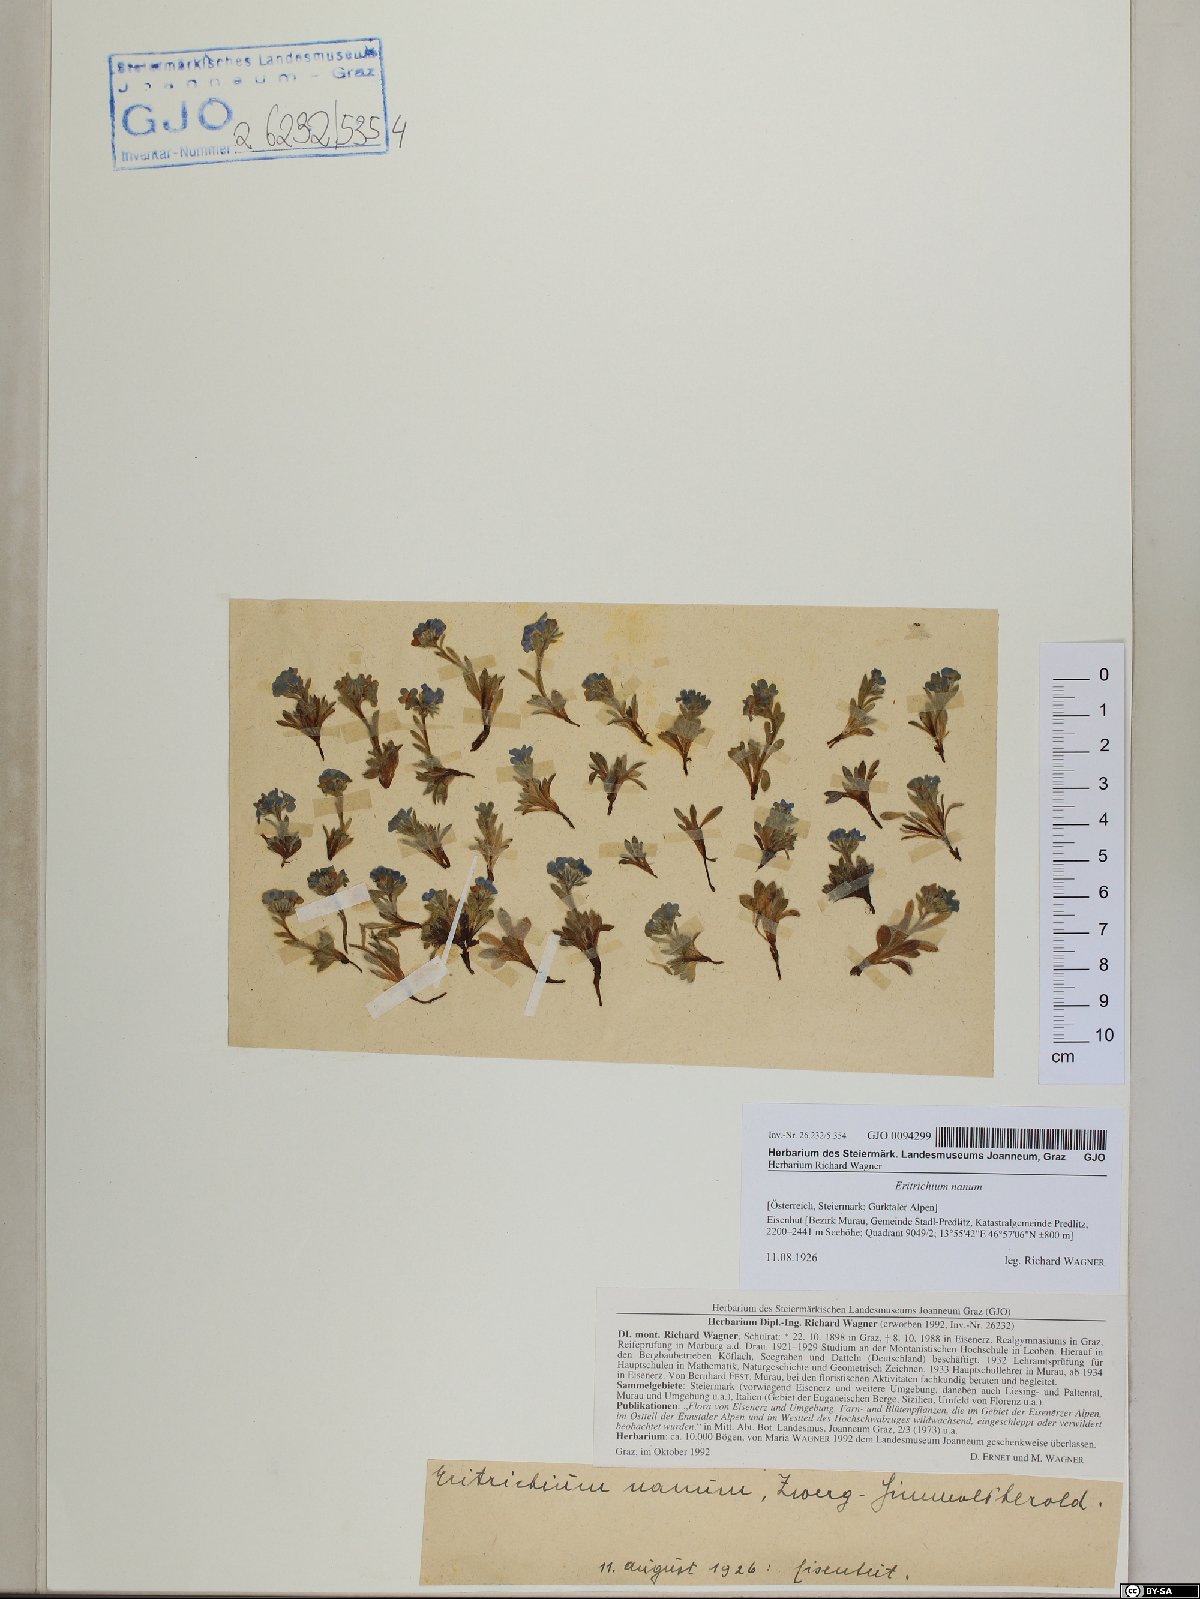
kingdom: Plantae
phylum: Tracheophyta
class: Magnoliopsida
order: Boraginales
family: Boraginaceae
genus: Eritrichium
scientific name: Eritrichium nanum
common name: King-of-the-alps
